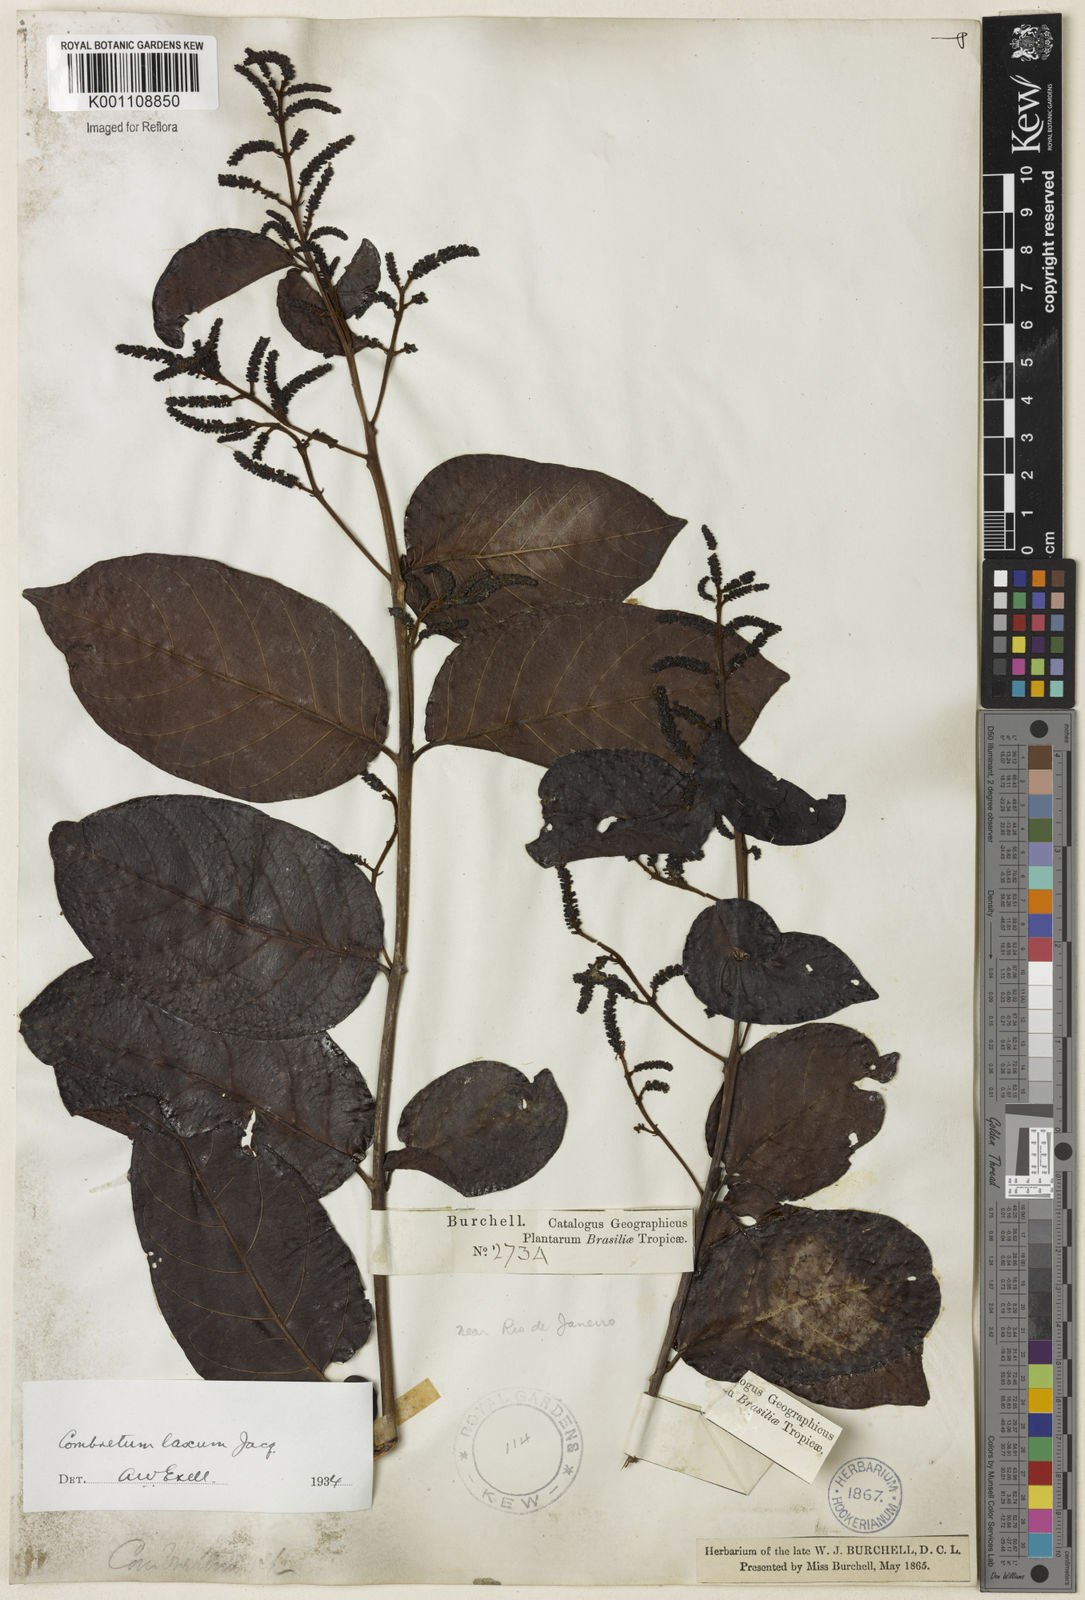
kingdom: Plantae
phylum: Tracheophyta
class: Magnoliopsida
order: Myrtales
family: Combretaceae
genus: Combretum
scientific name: Combretum laxum
